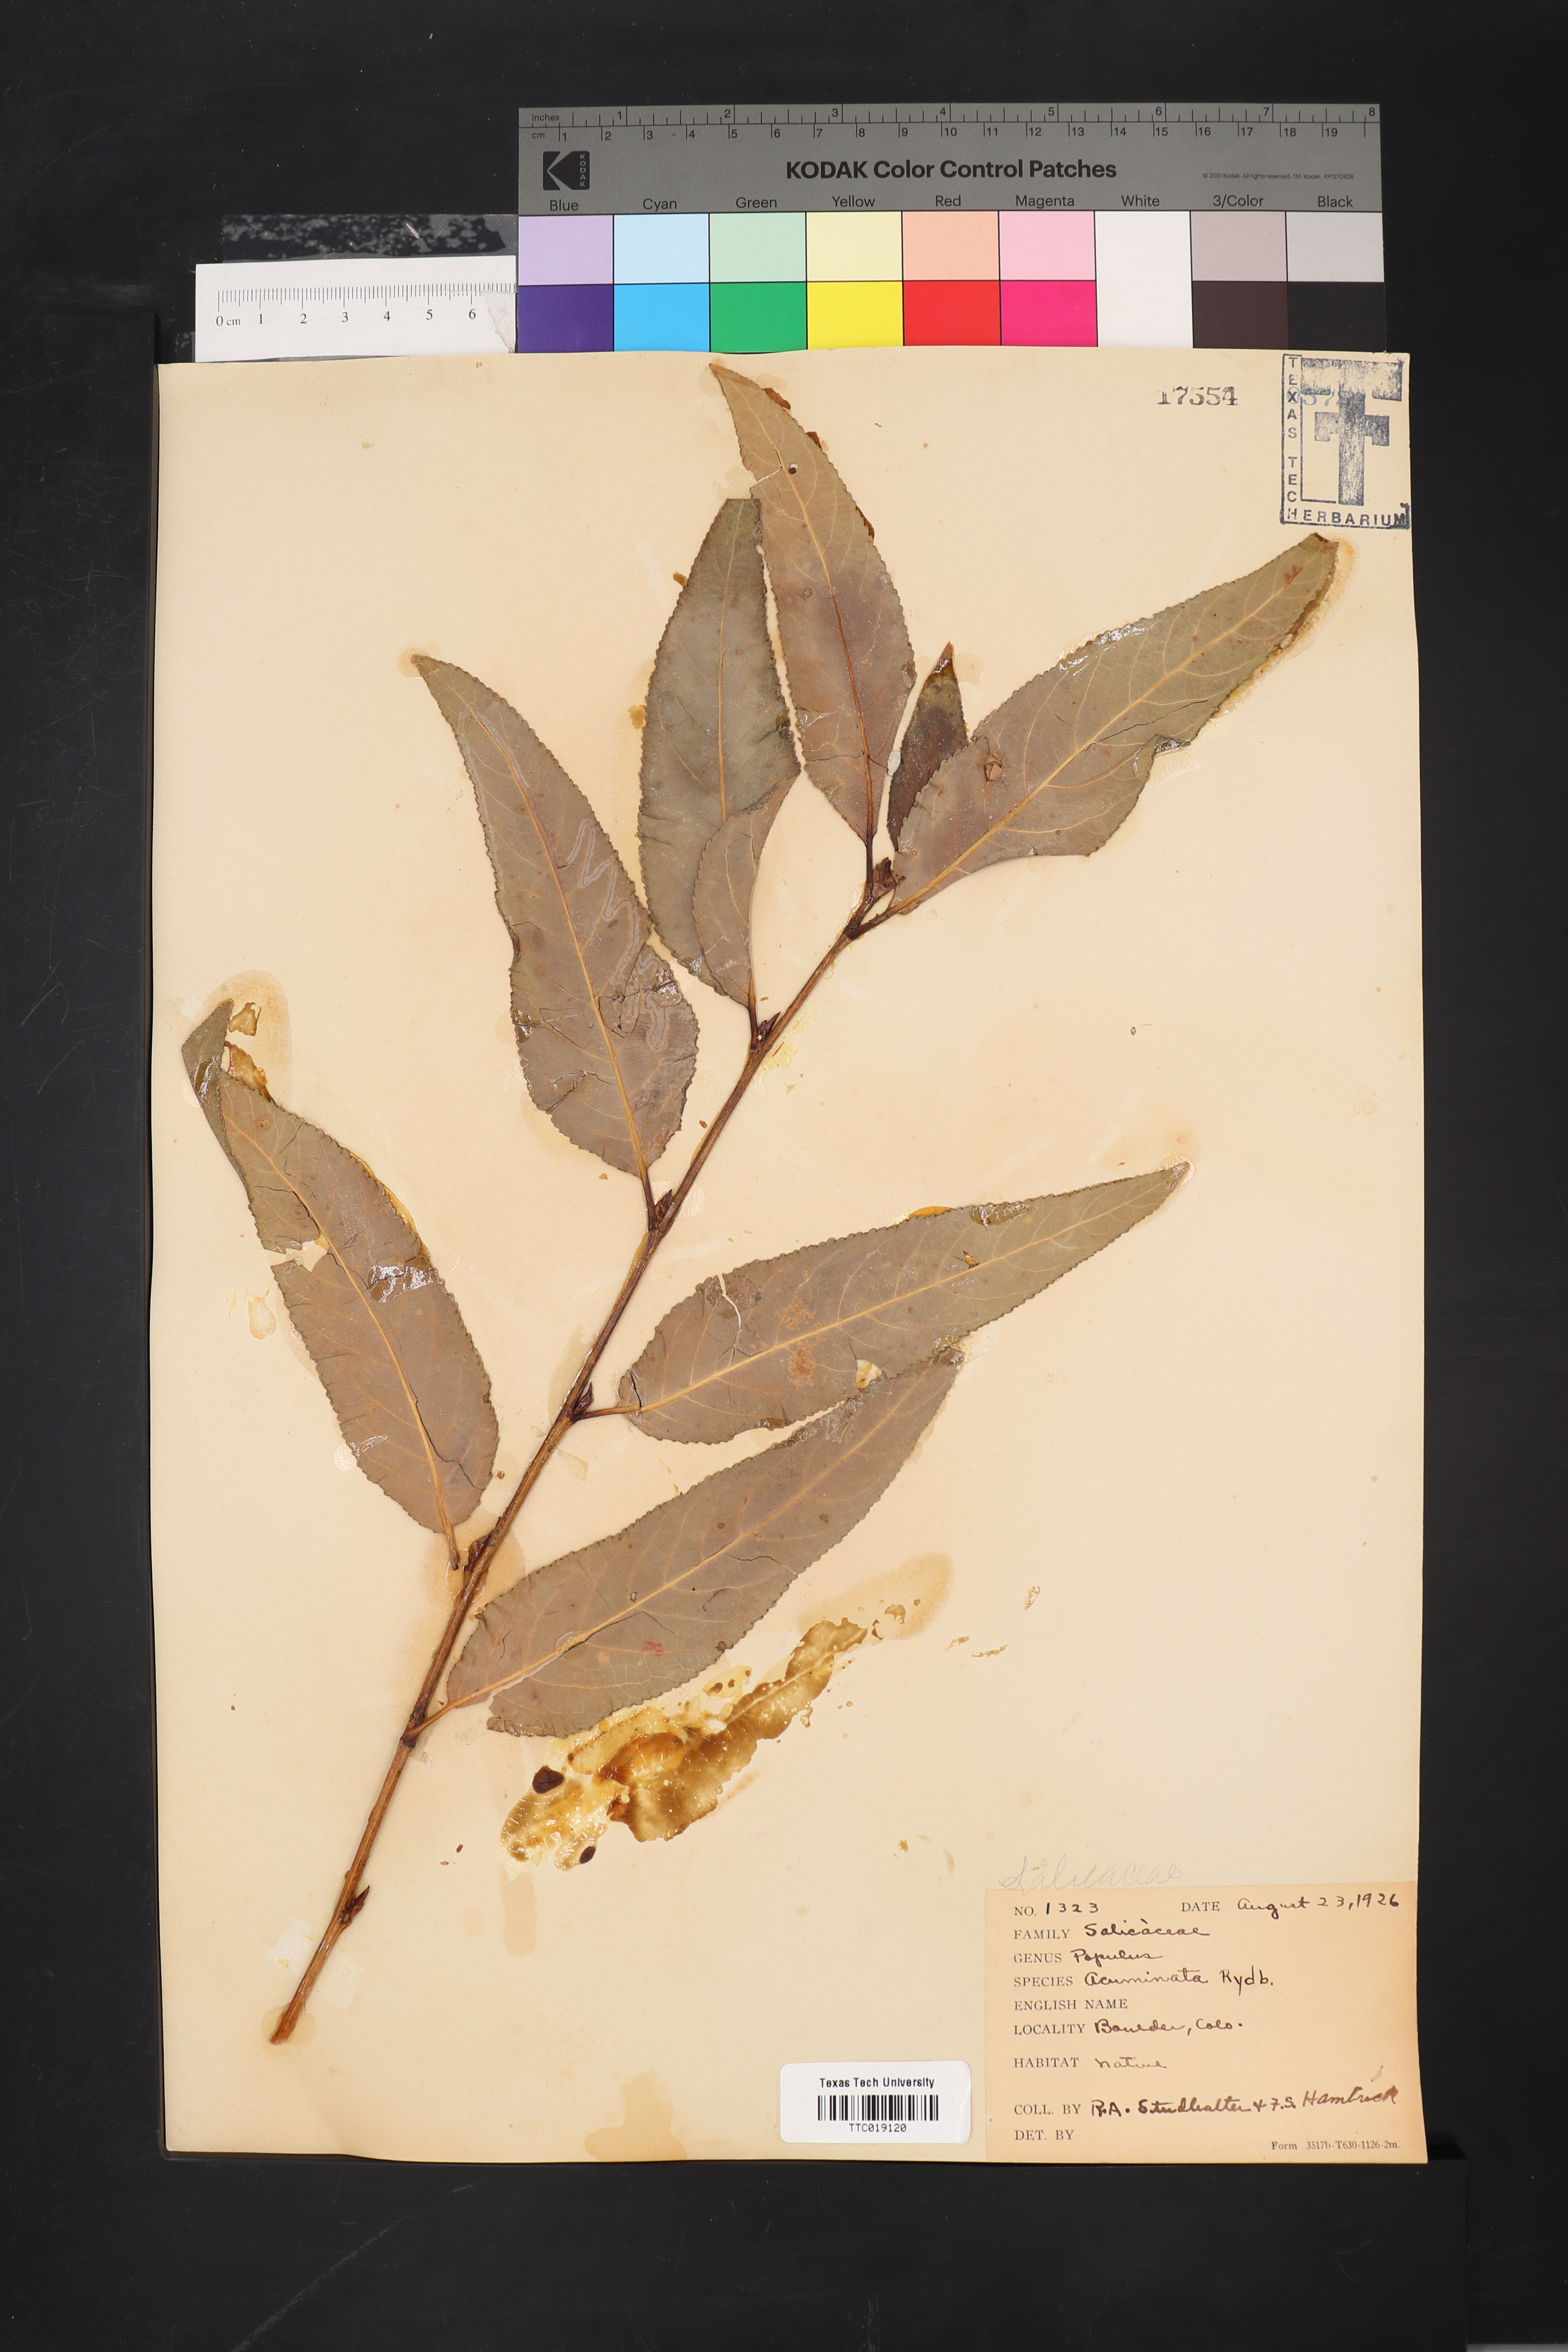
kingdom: Plantae
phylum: Tracheophyta
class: Magnoliopsida
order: Malpighiales
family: Salicaceae
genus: Populus
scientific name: Populus acuminata
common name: Lance-leaved cottonwood
